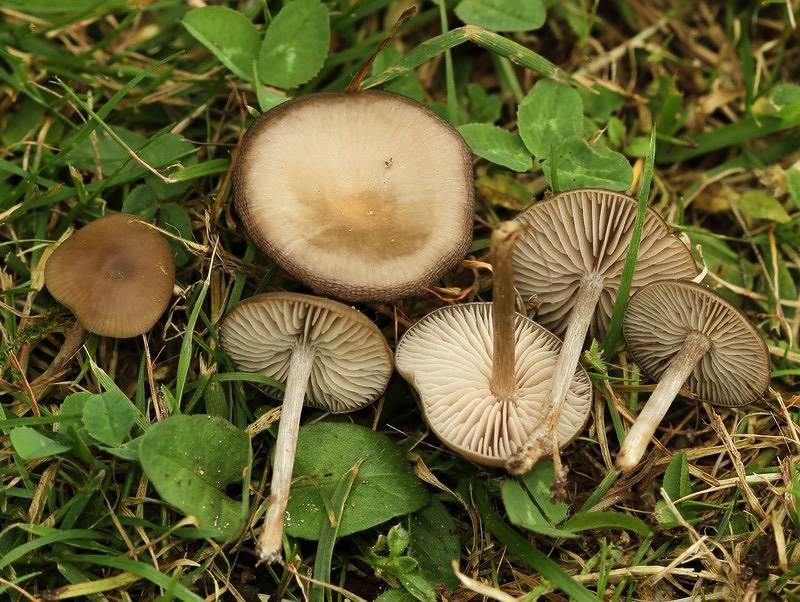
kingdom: Fungi
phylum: Basidiomycota
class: Agaricomycetes
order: Agaricales
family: Entolomataceae
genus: Entoloma
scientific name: Entoloma sericeum
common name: silkeglinsende rødblad
